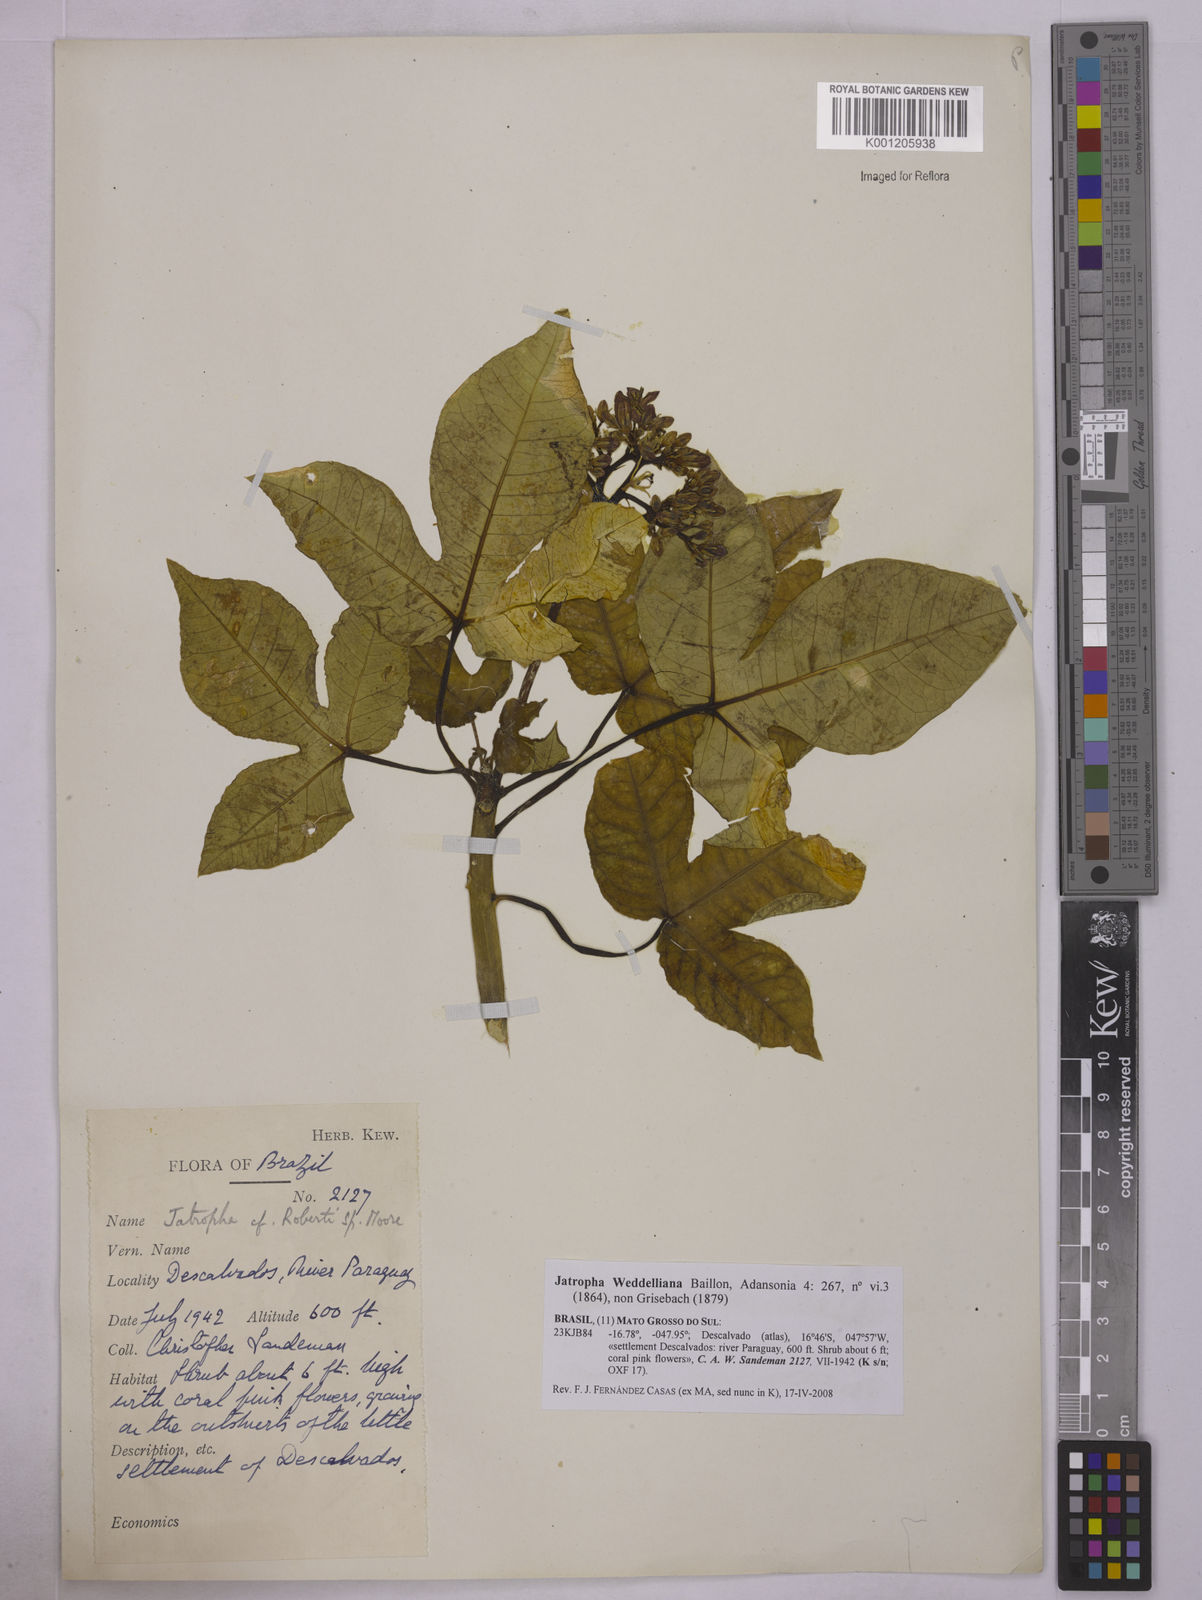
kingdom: Plantae
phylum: Tracheophyta
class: Magnoliopsida
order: Malpighiales
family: Euphorbiaceae
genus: Jatropha
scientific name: Jatropha weddeliana
